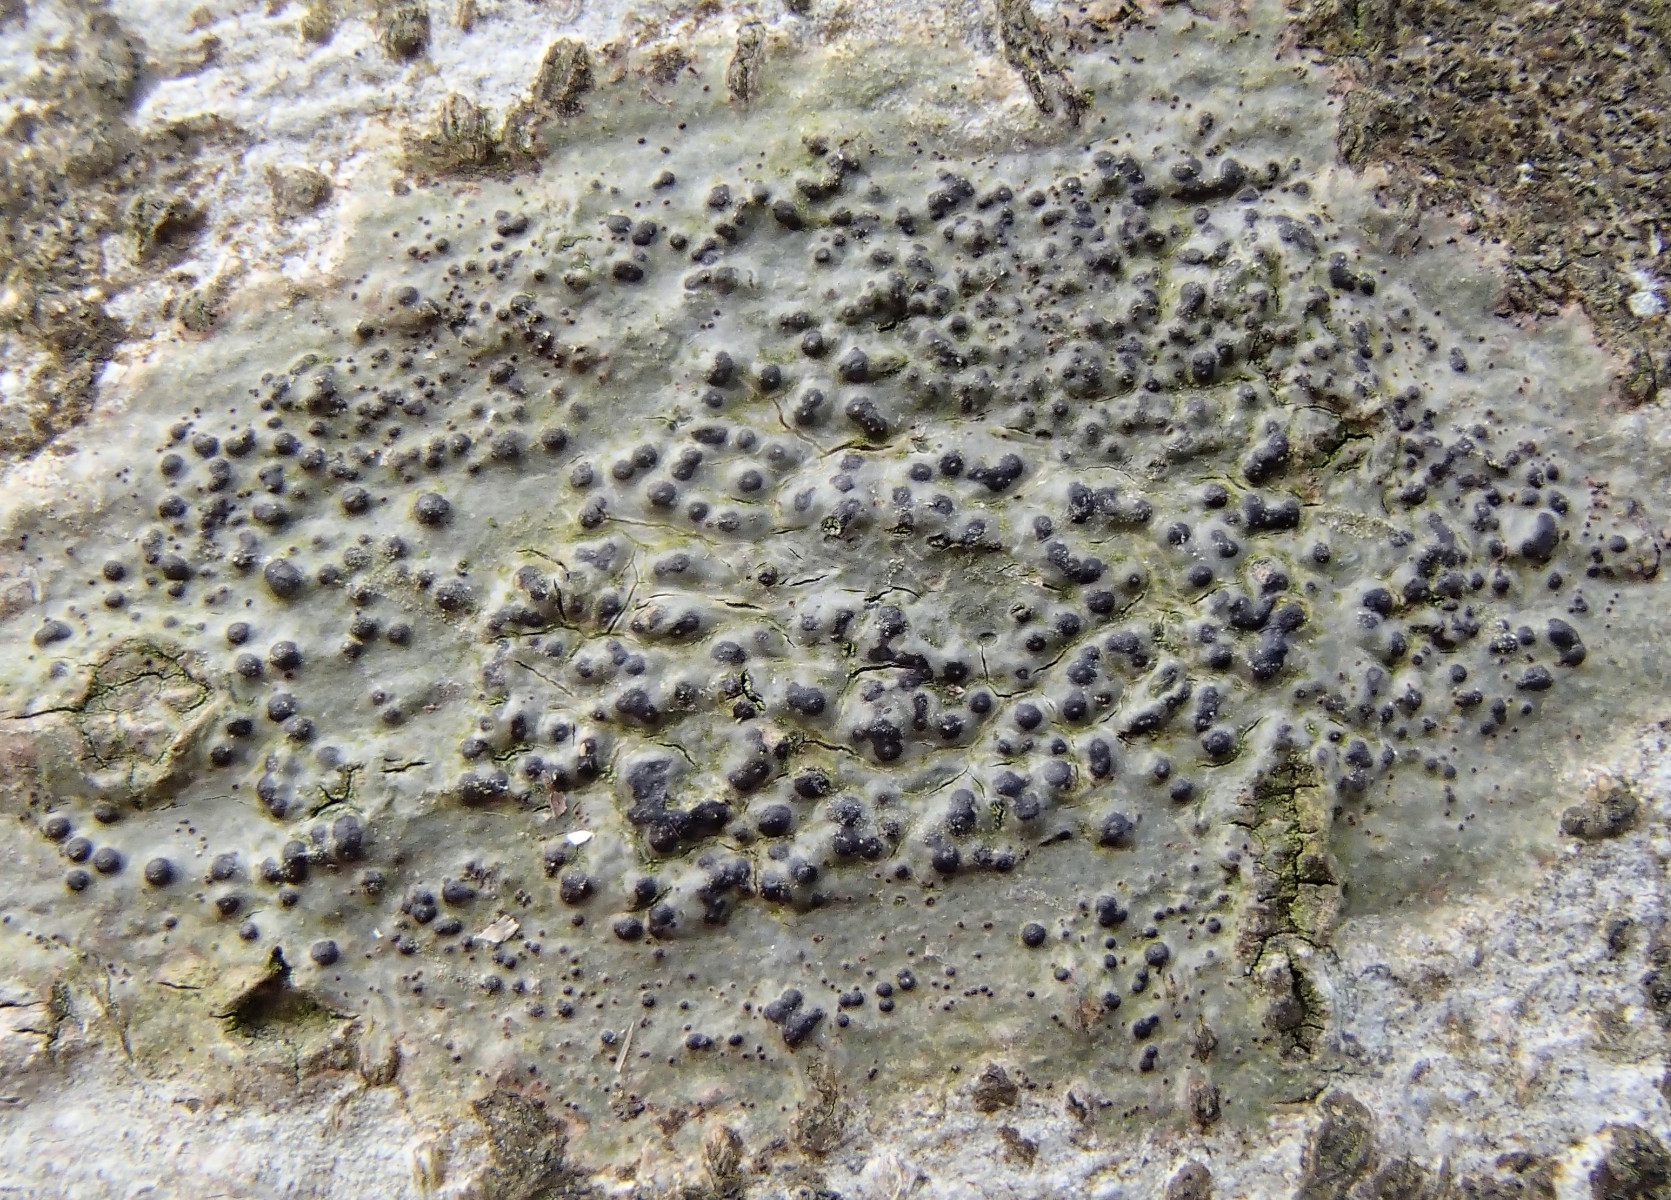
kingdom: Fungi
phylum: Ascomycota
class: Eurotiomycetes
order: Pyrenulales
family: Pyrenulaceae
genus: Pyrenula
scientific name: Pyrenula nitida
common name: glinsende kernelav
